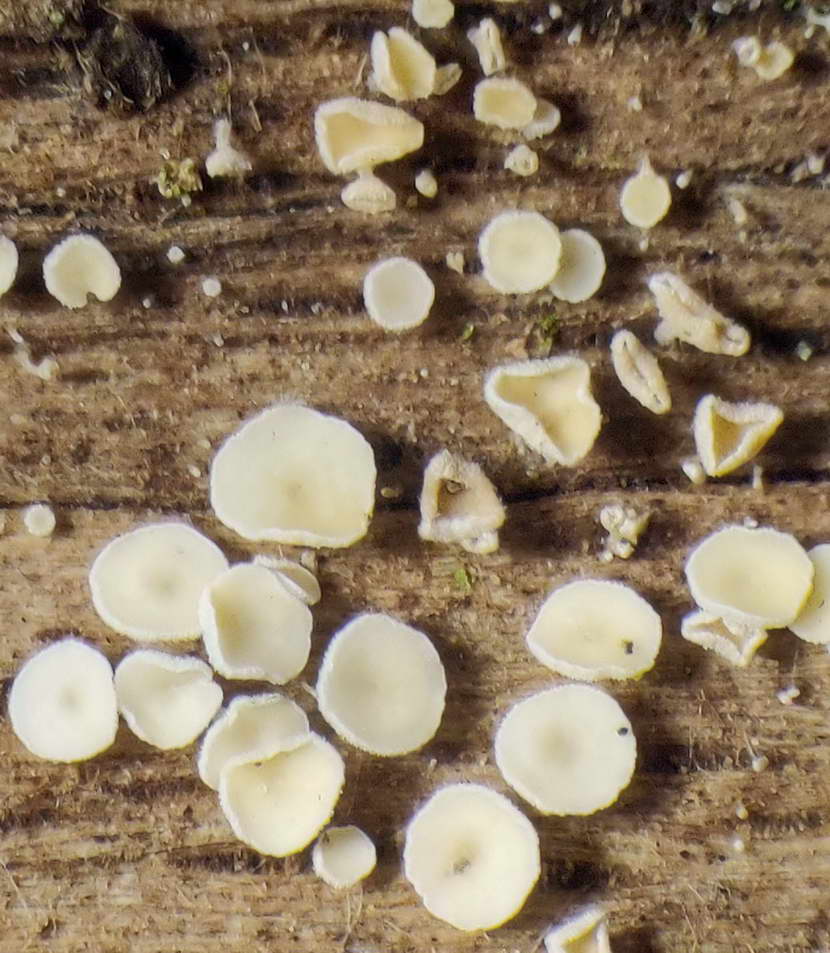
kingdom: Fungi
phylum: Ascomycota
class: Leotiomycetes
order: Helotiales
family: Lachnaceae
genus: Dasyscyphella
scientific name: Dasyscyphella nivea
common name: hvid frynseskive
